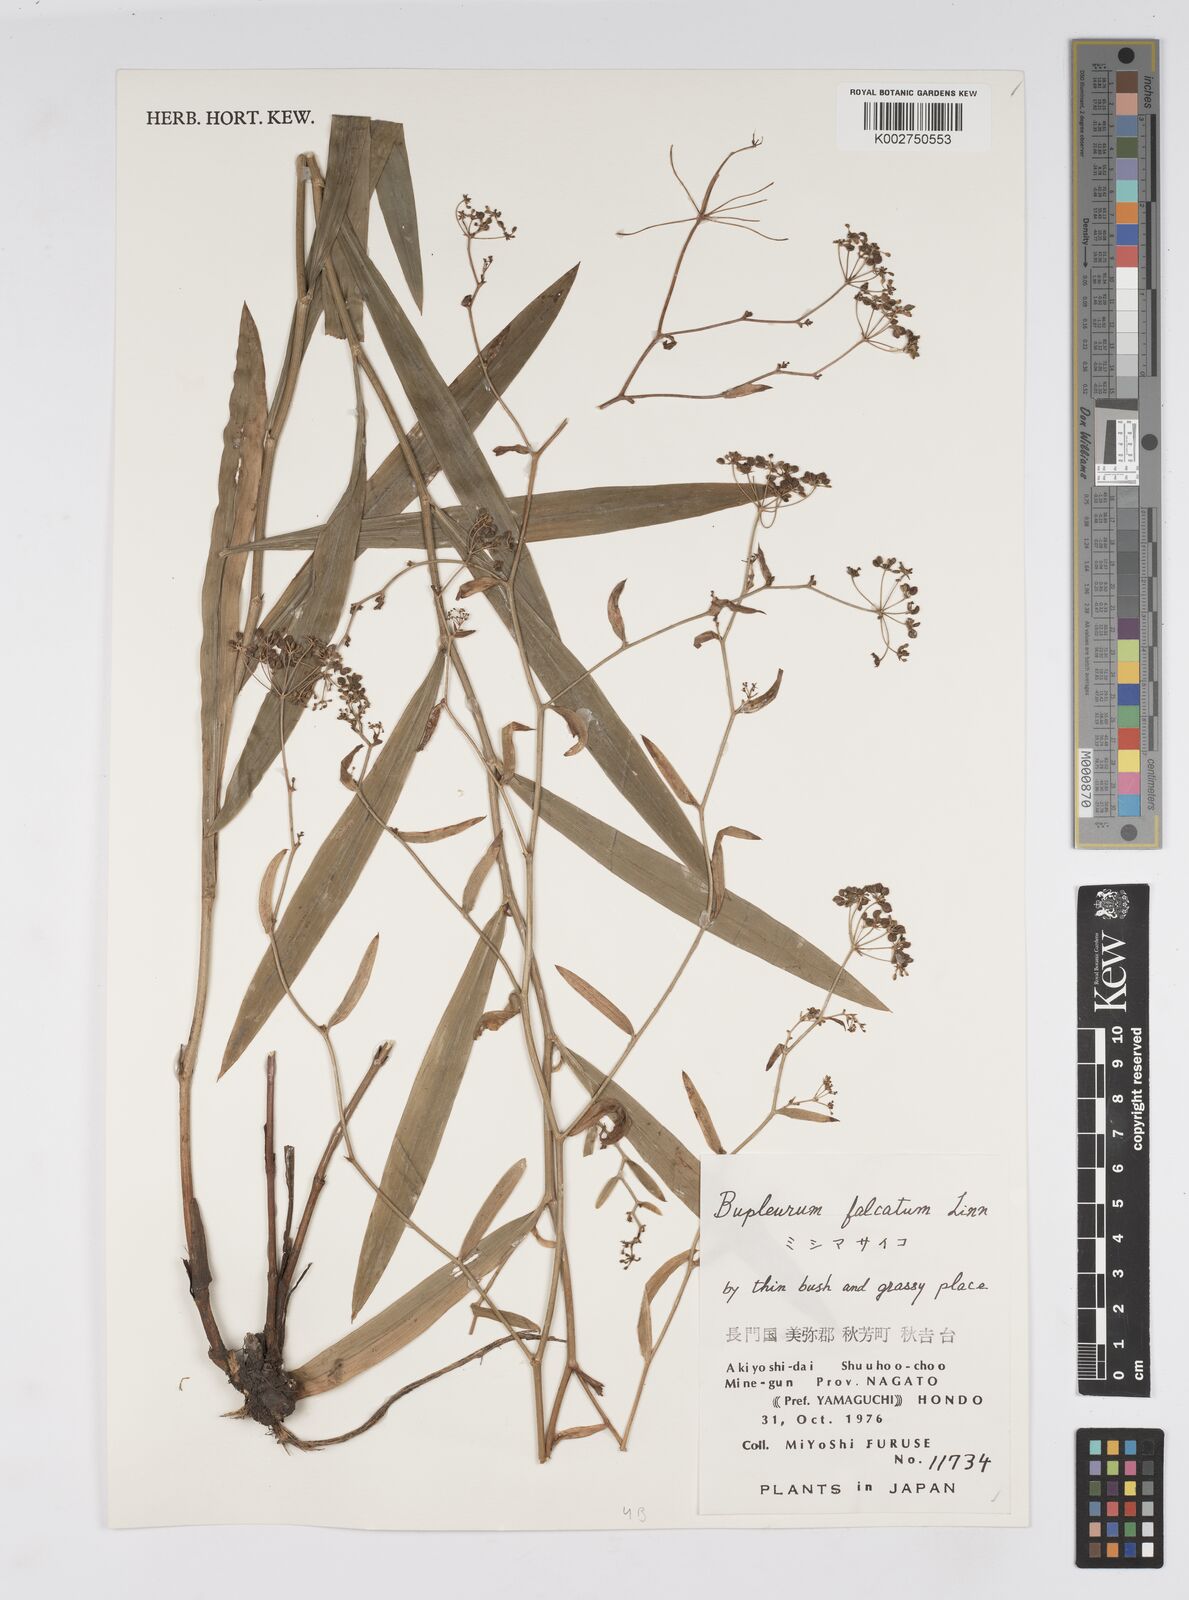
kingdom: Plantae
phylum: Tracheophyta
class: Magnoliopsida
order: Apiales
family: Apiaceae
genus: Bupleurum
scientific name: Bupleurum falcatum
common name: Sickle-leaved hare's-ear
